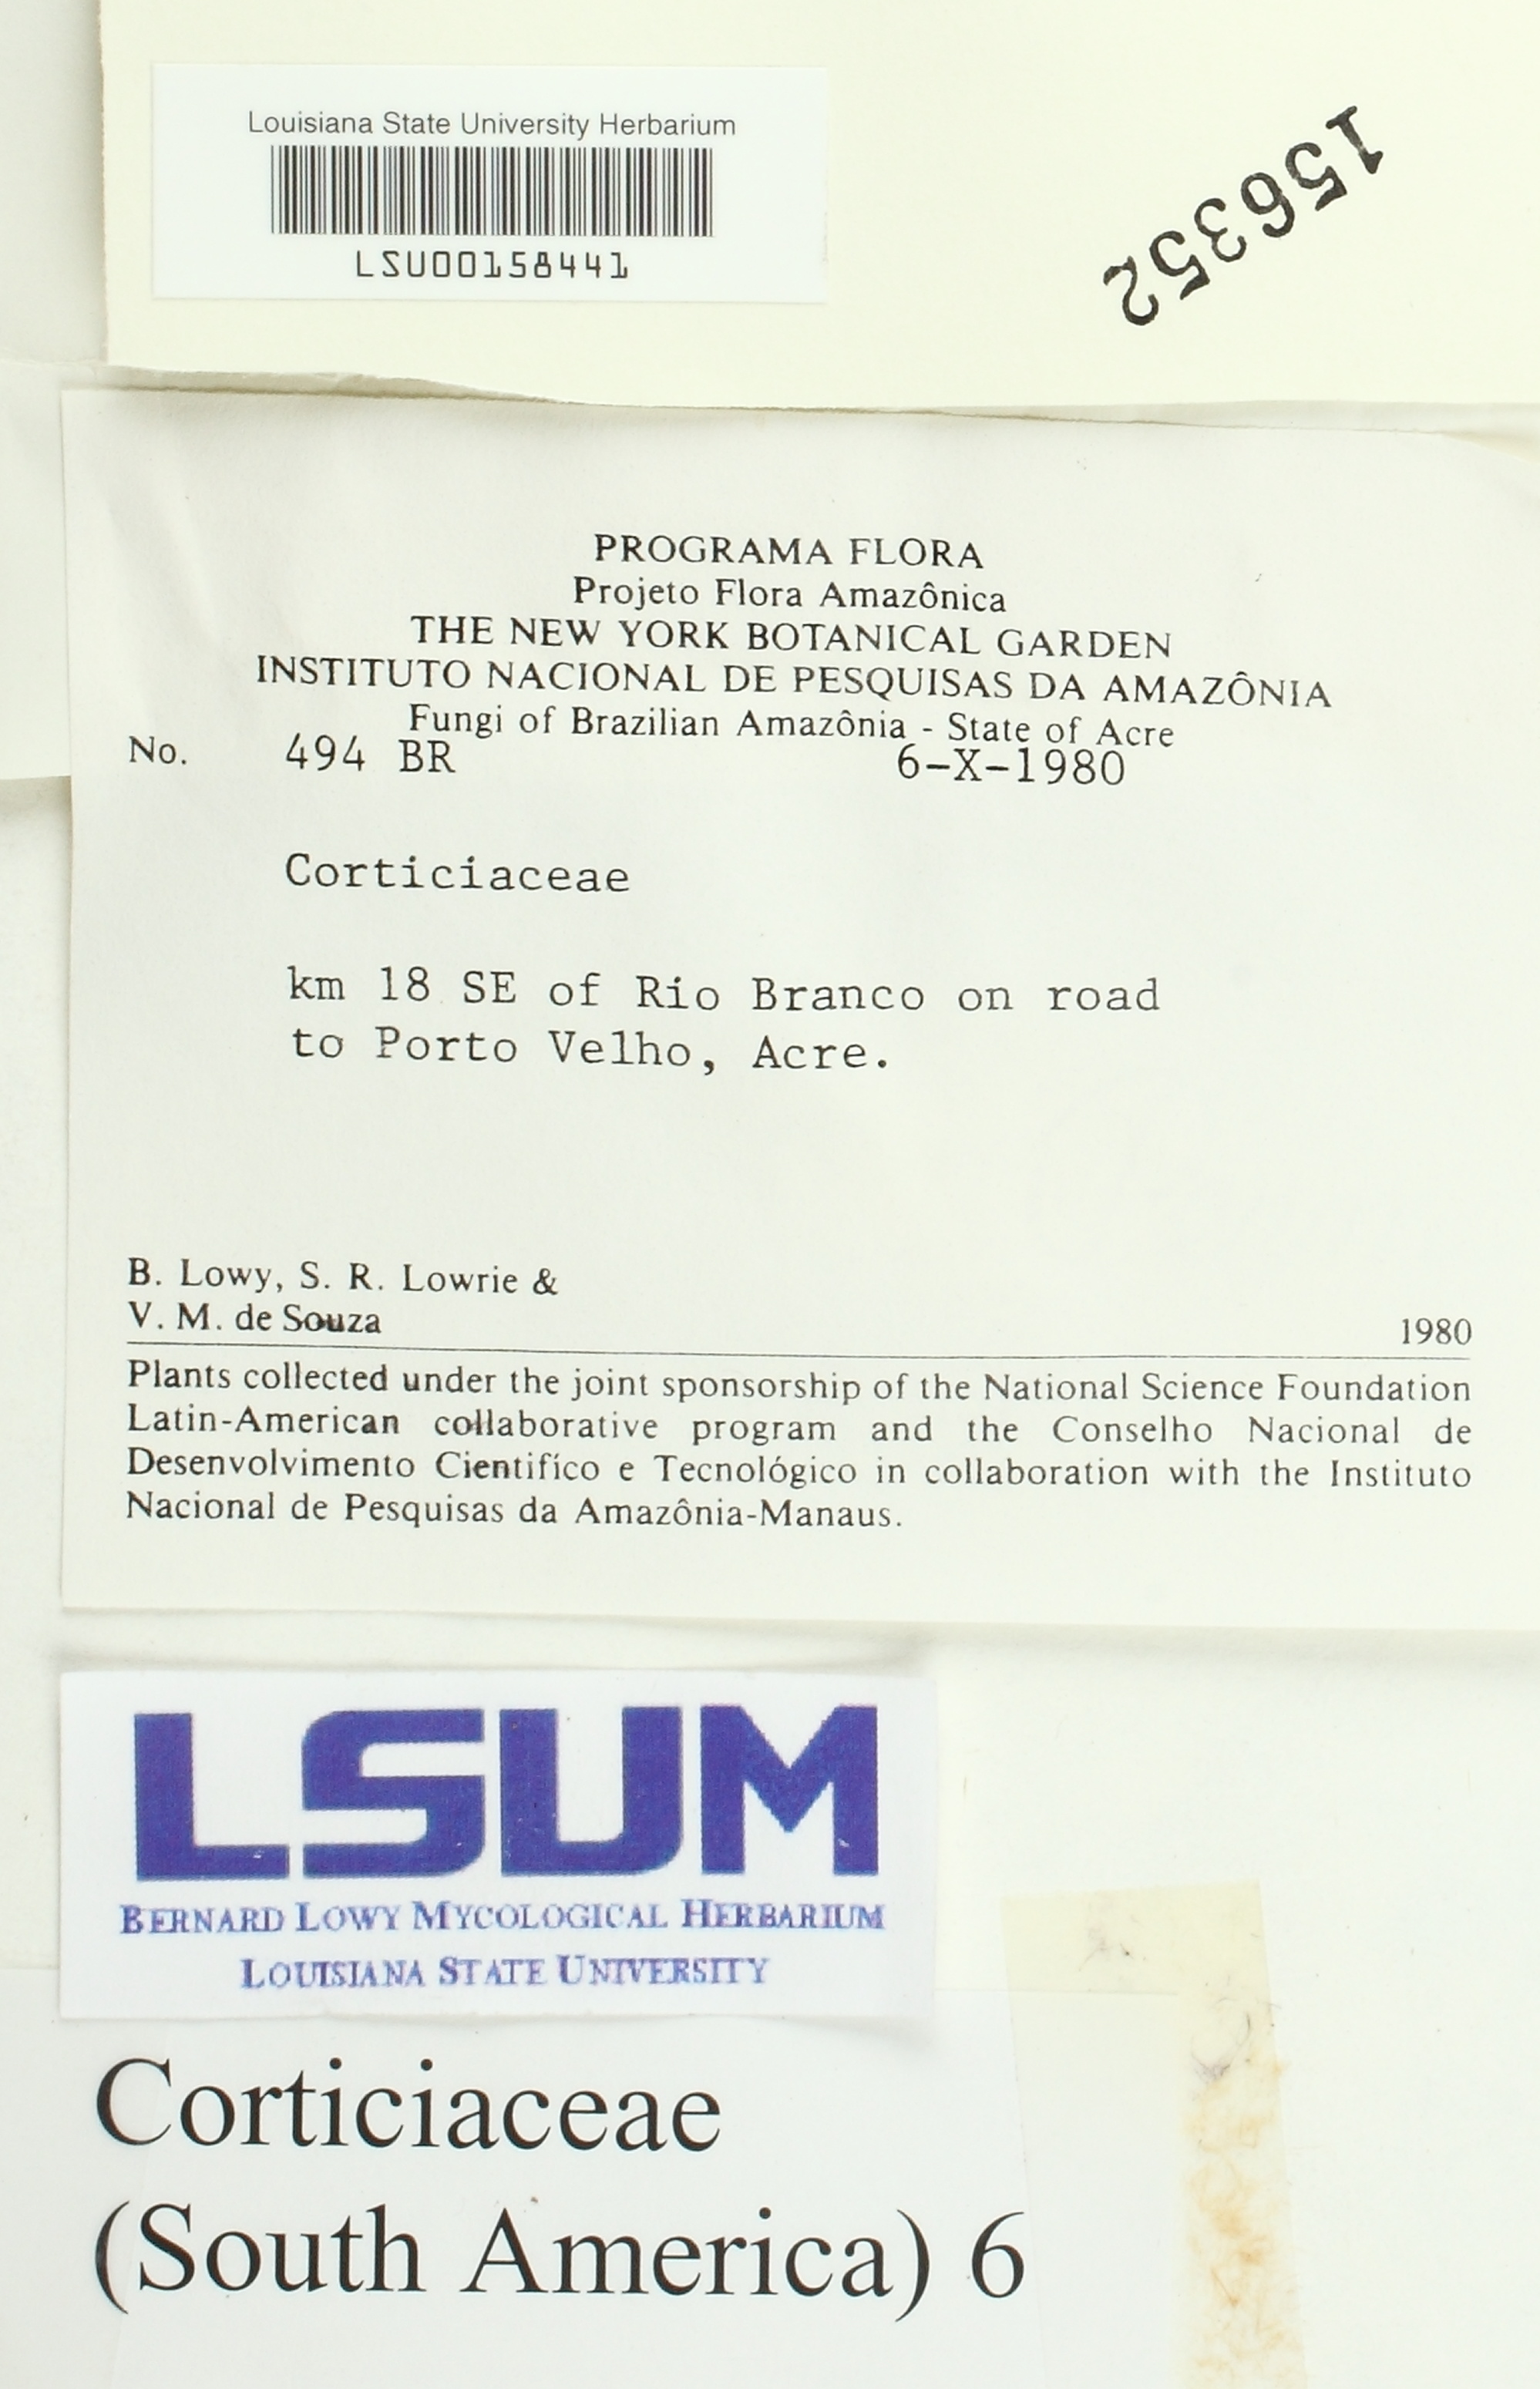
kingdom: Fungi
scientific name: Fungi
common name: Fungi
